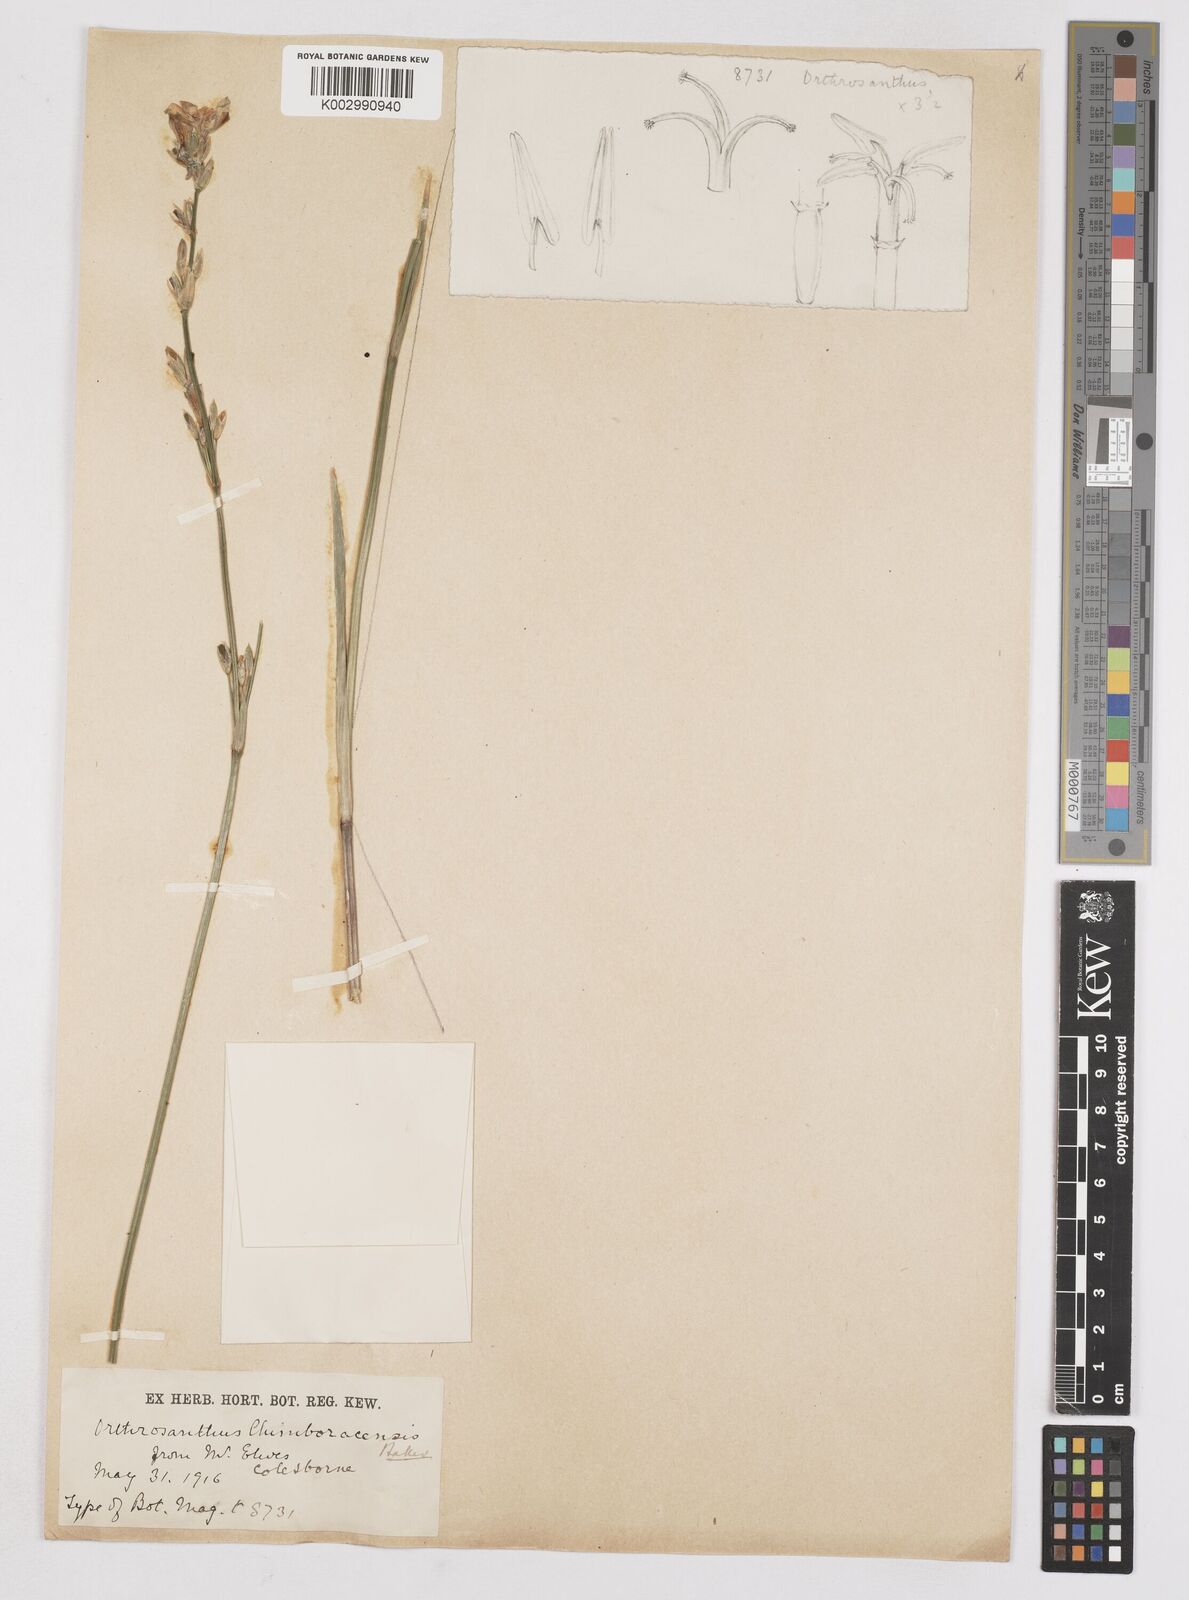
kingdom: Plantae
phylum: Tracheophyta
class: Liliopsida
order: Asparagales
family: Iridaceae
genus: Orthrosanthus
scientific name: Orthrosanthus polystachyus
